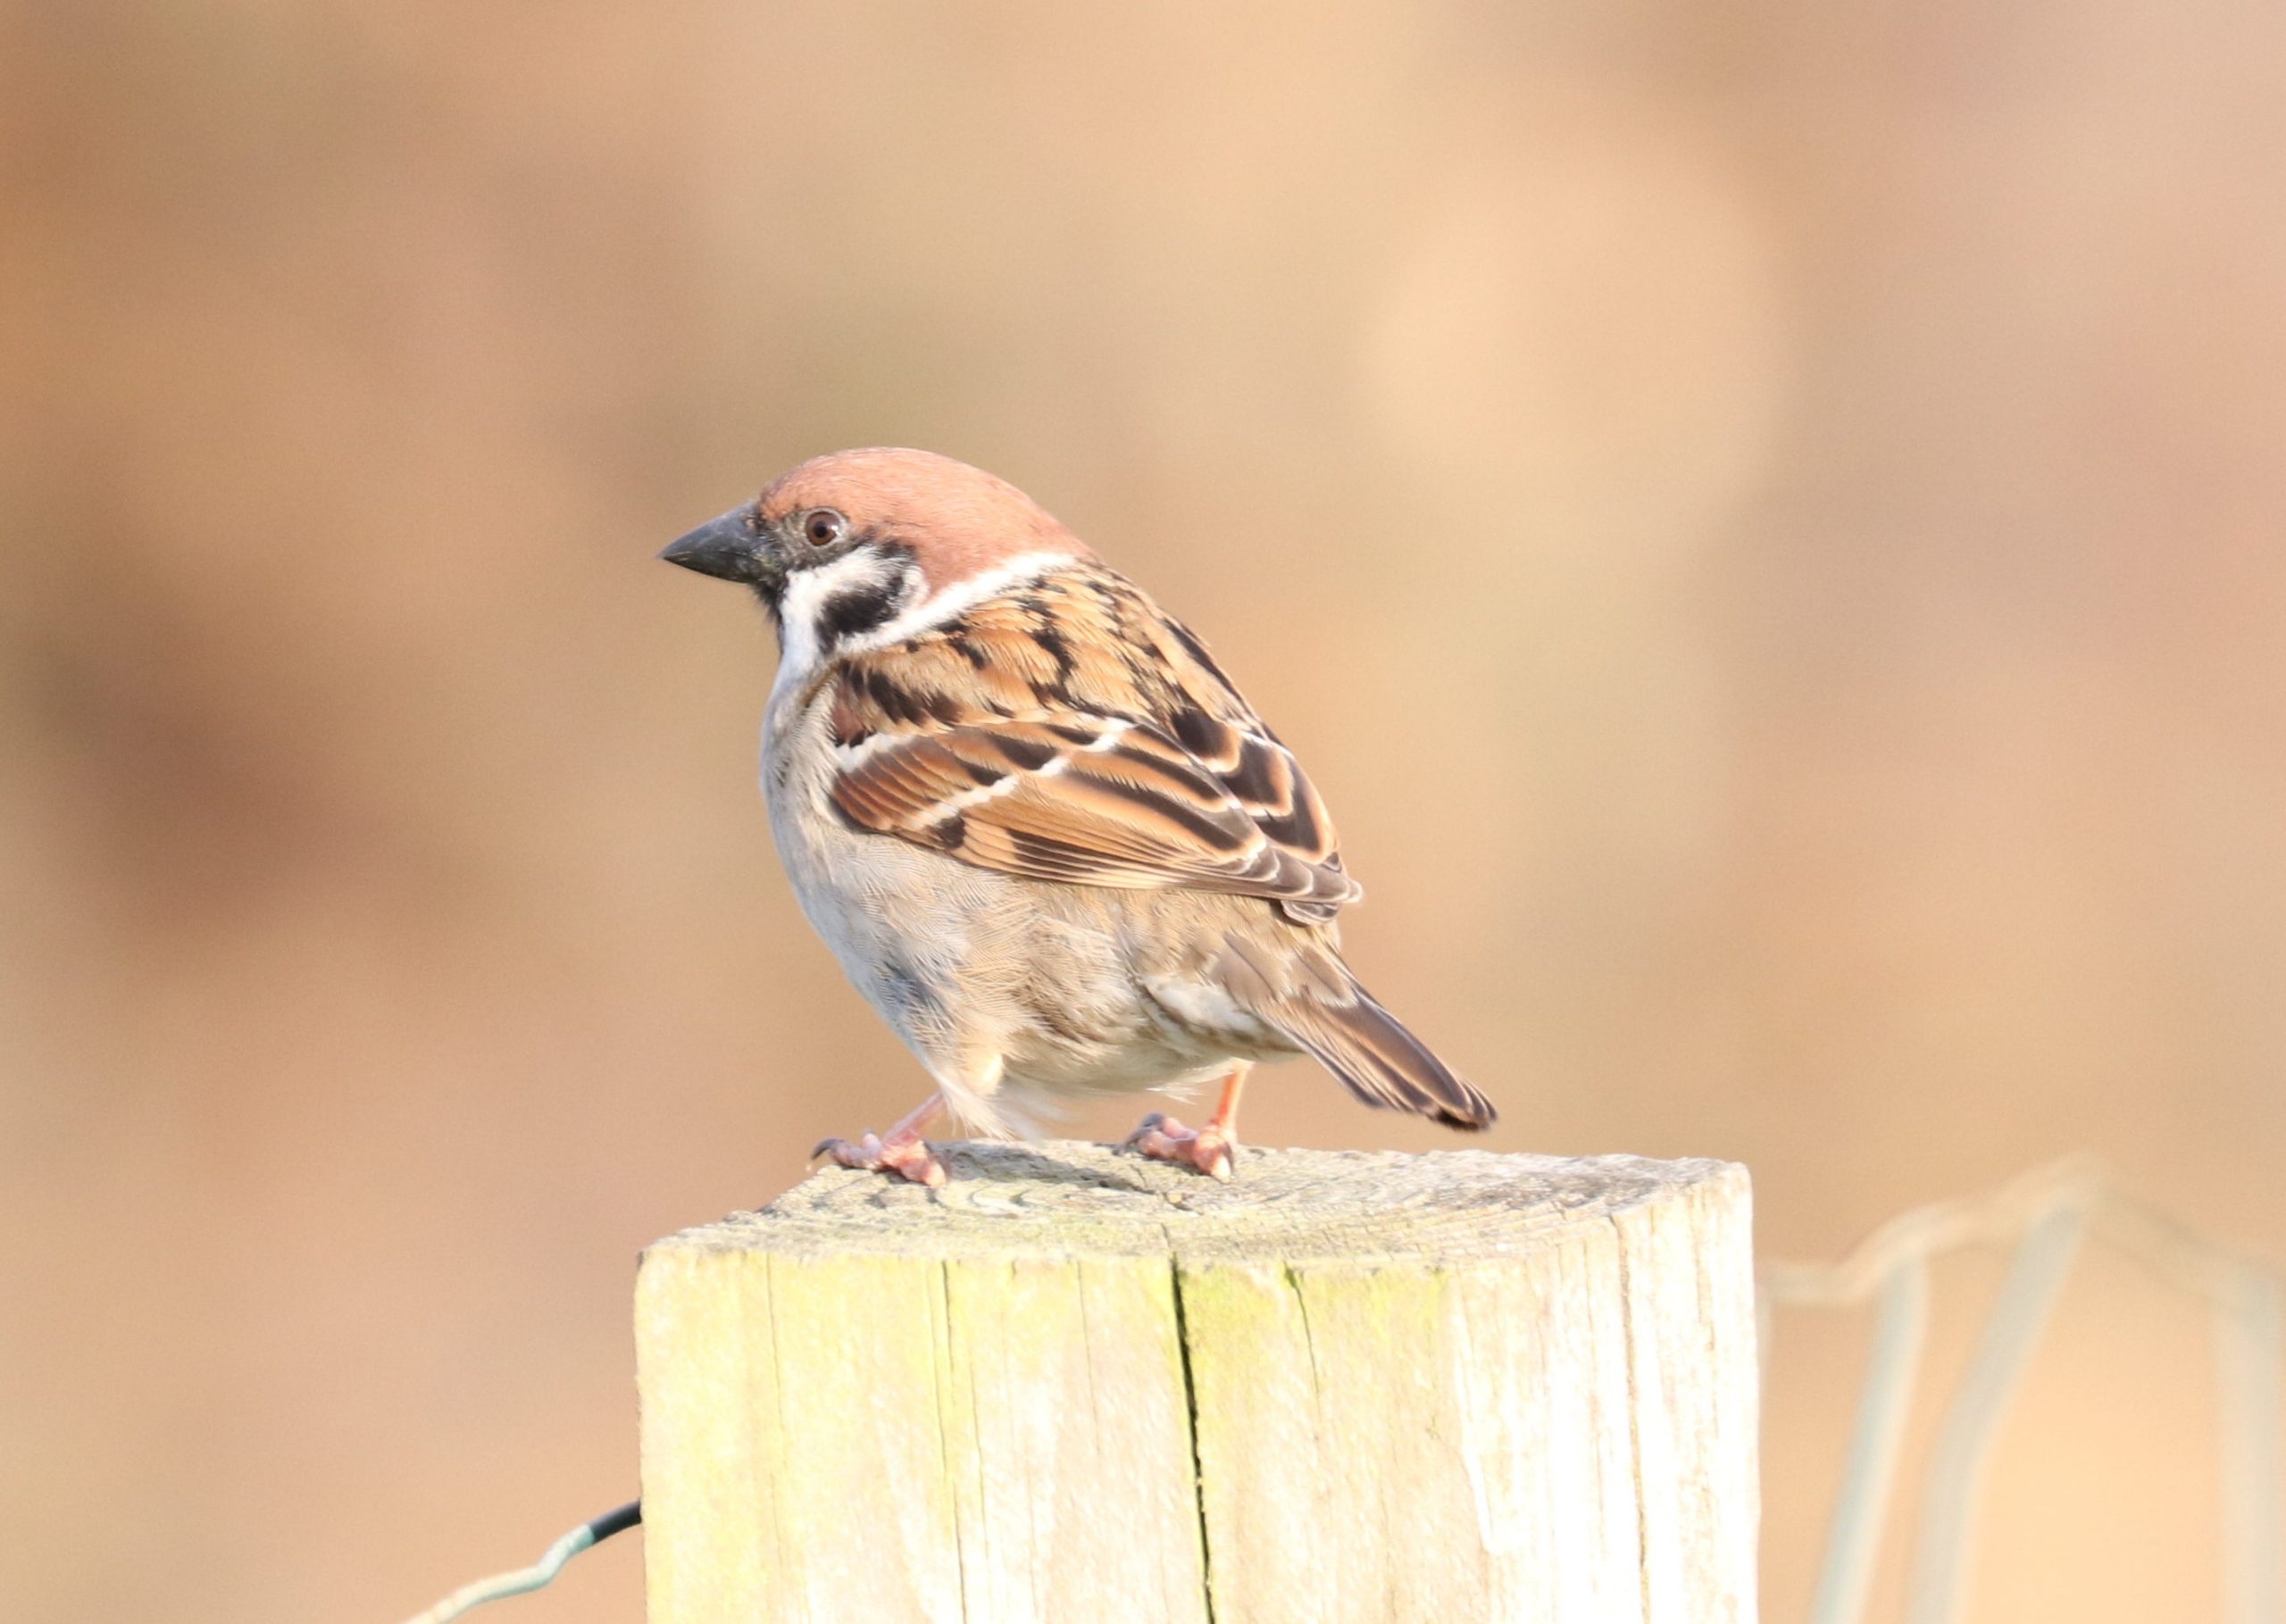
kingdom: Animalia
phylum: Chordata
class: Aves
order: Passeriformes
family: Passeridae
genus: Passer
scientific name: Passer montanus
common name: Skovspurv
